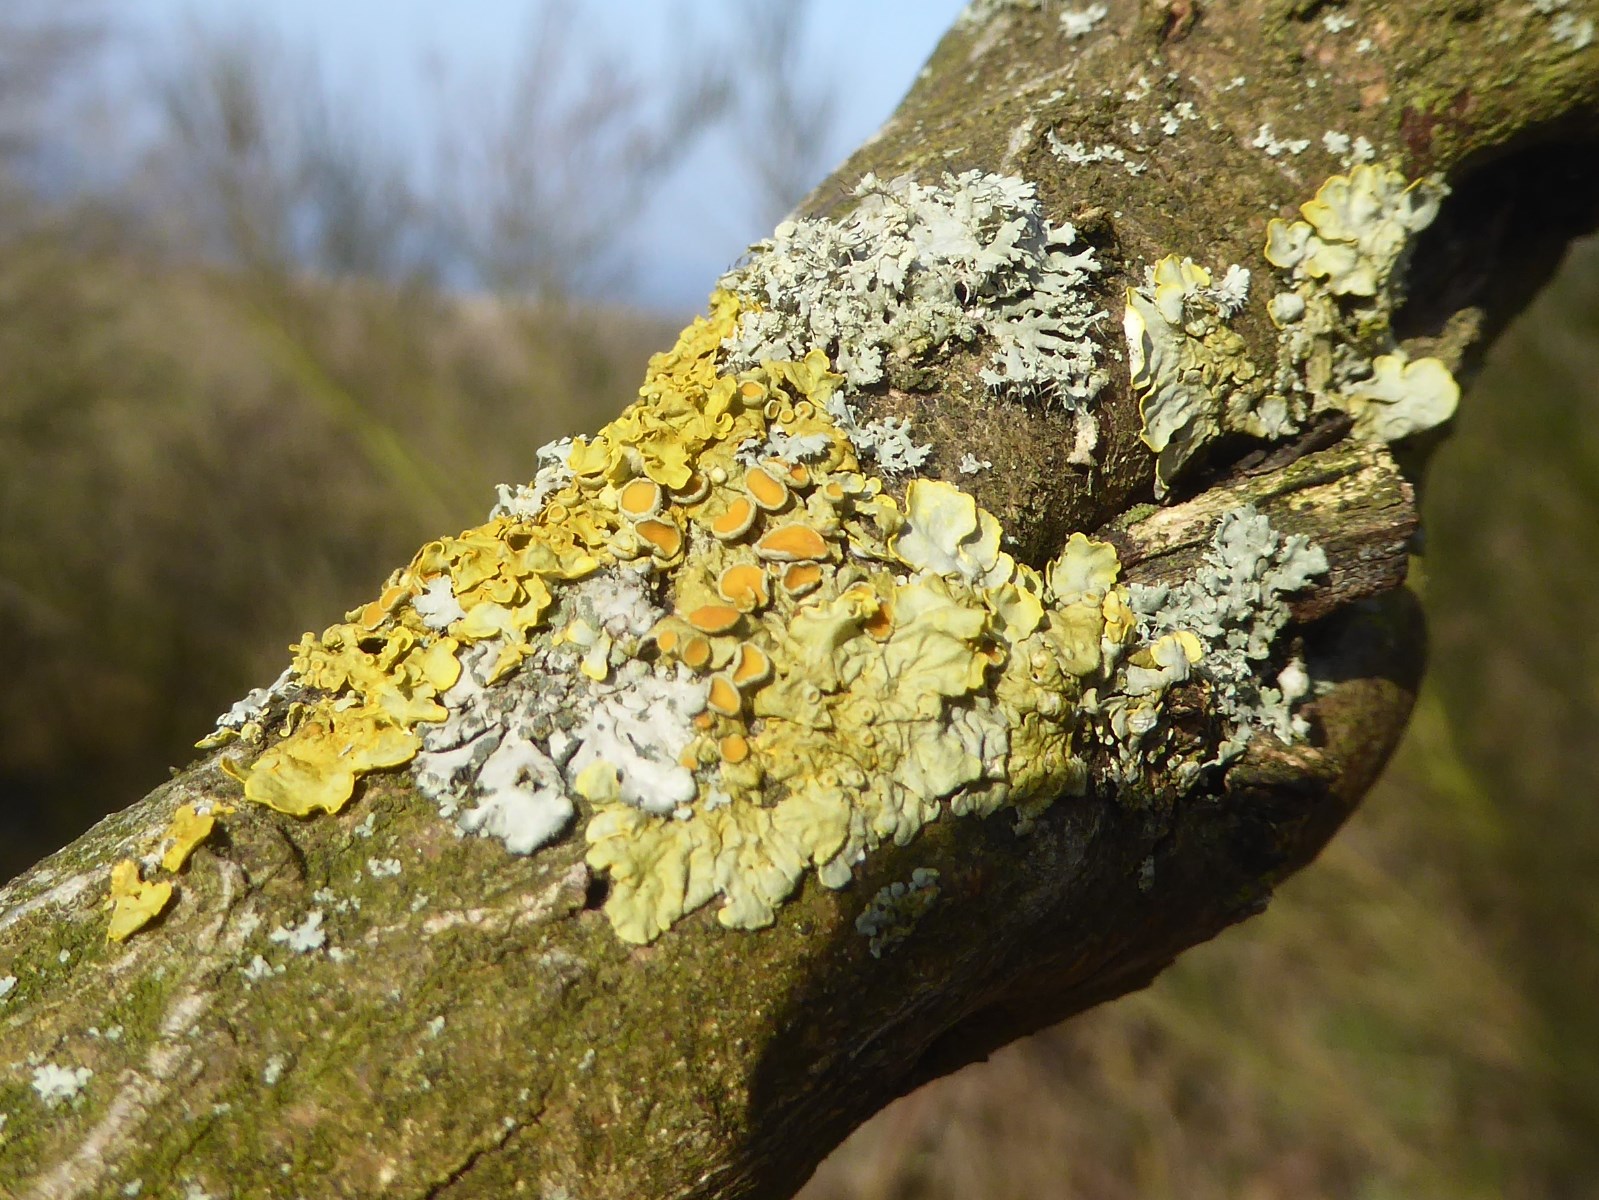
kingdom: Fungi
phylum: Ascomycota
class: Lecanoromycetes
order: Teloschistales
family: Teloschistaceae
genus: Xanthoria
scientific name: Xanthoria parietina
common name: almindelig væggelav
